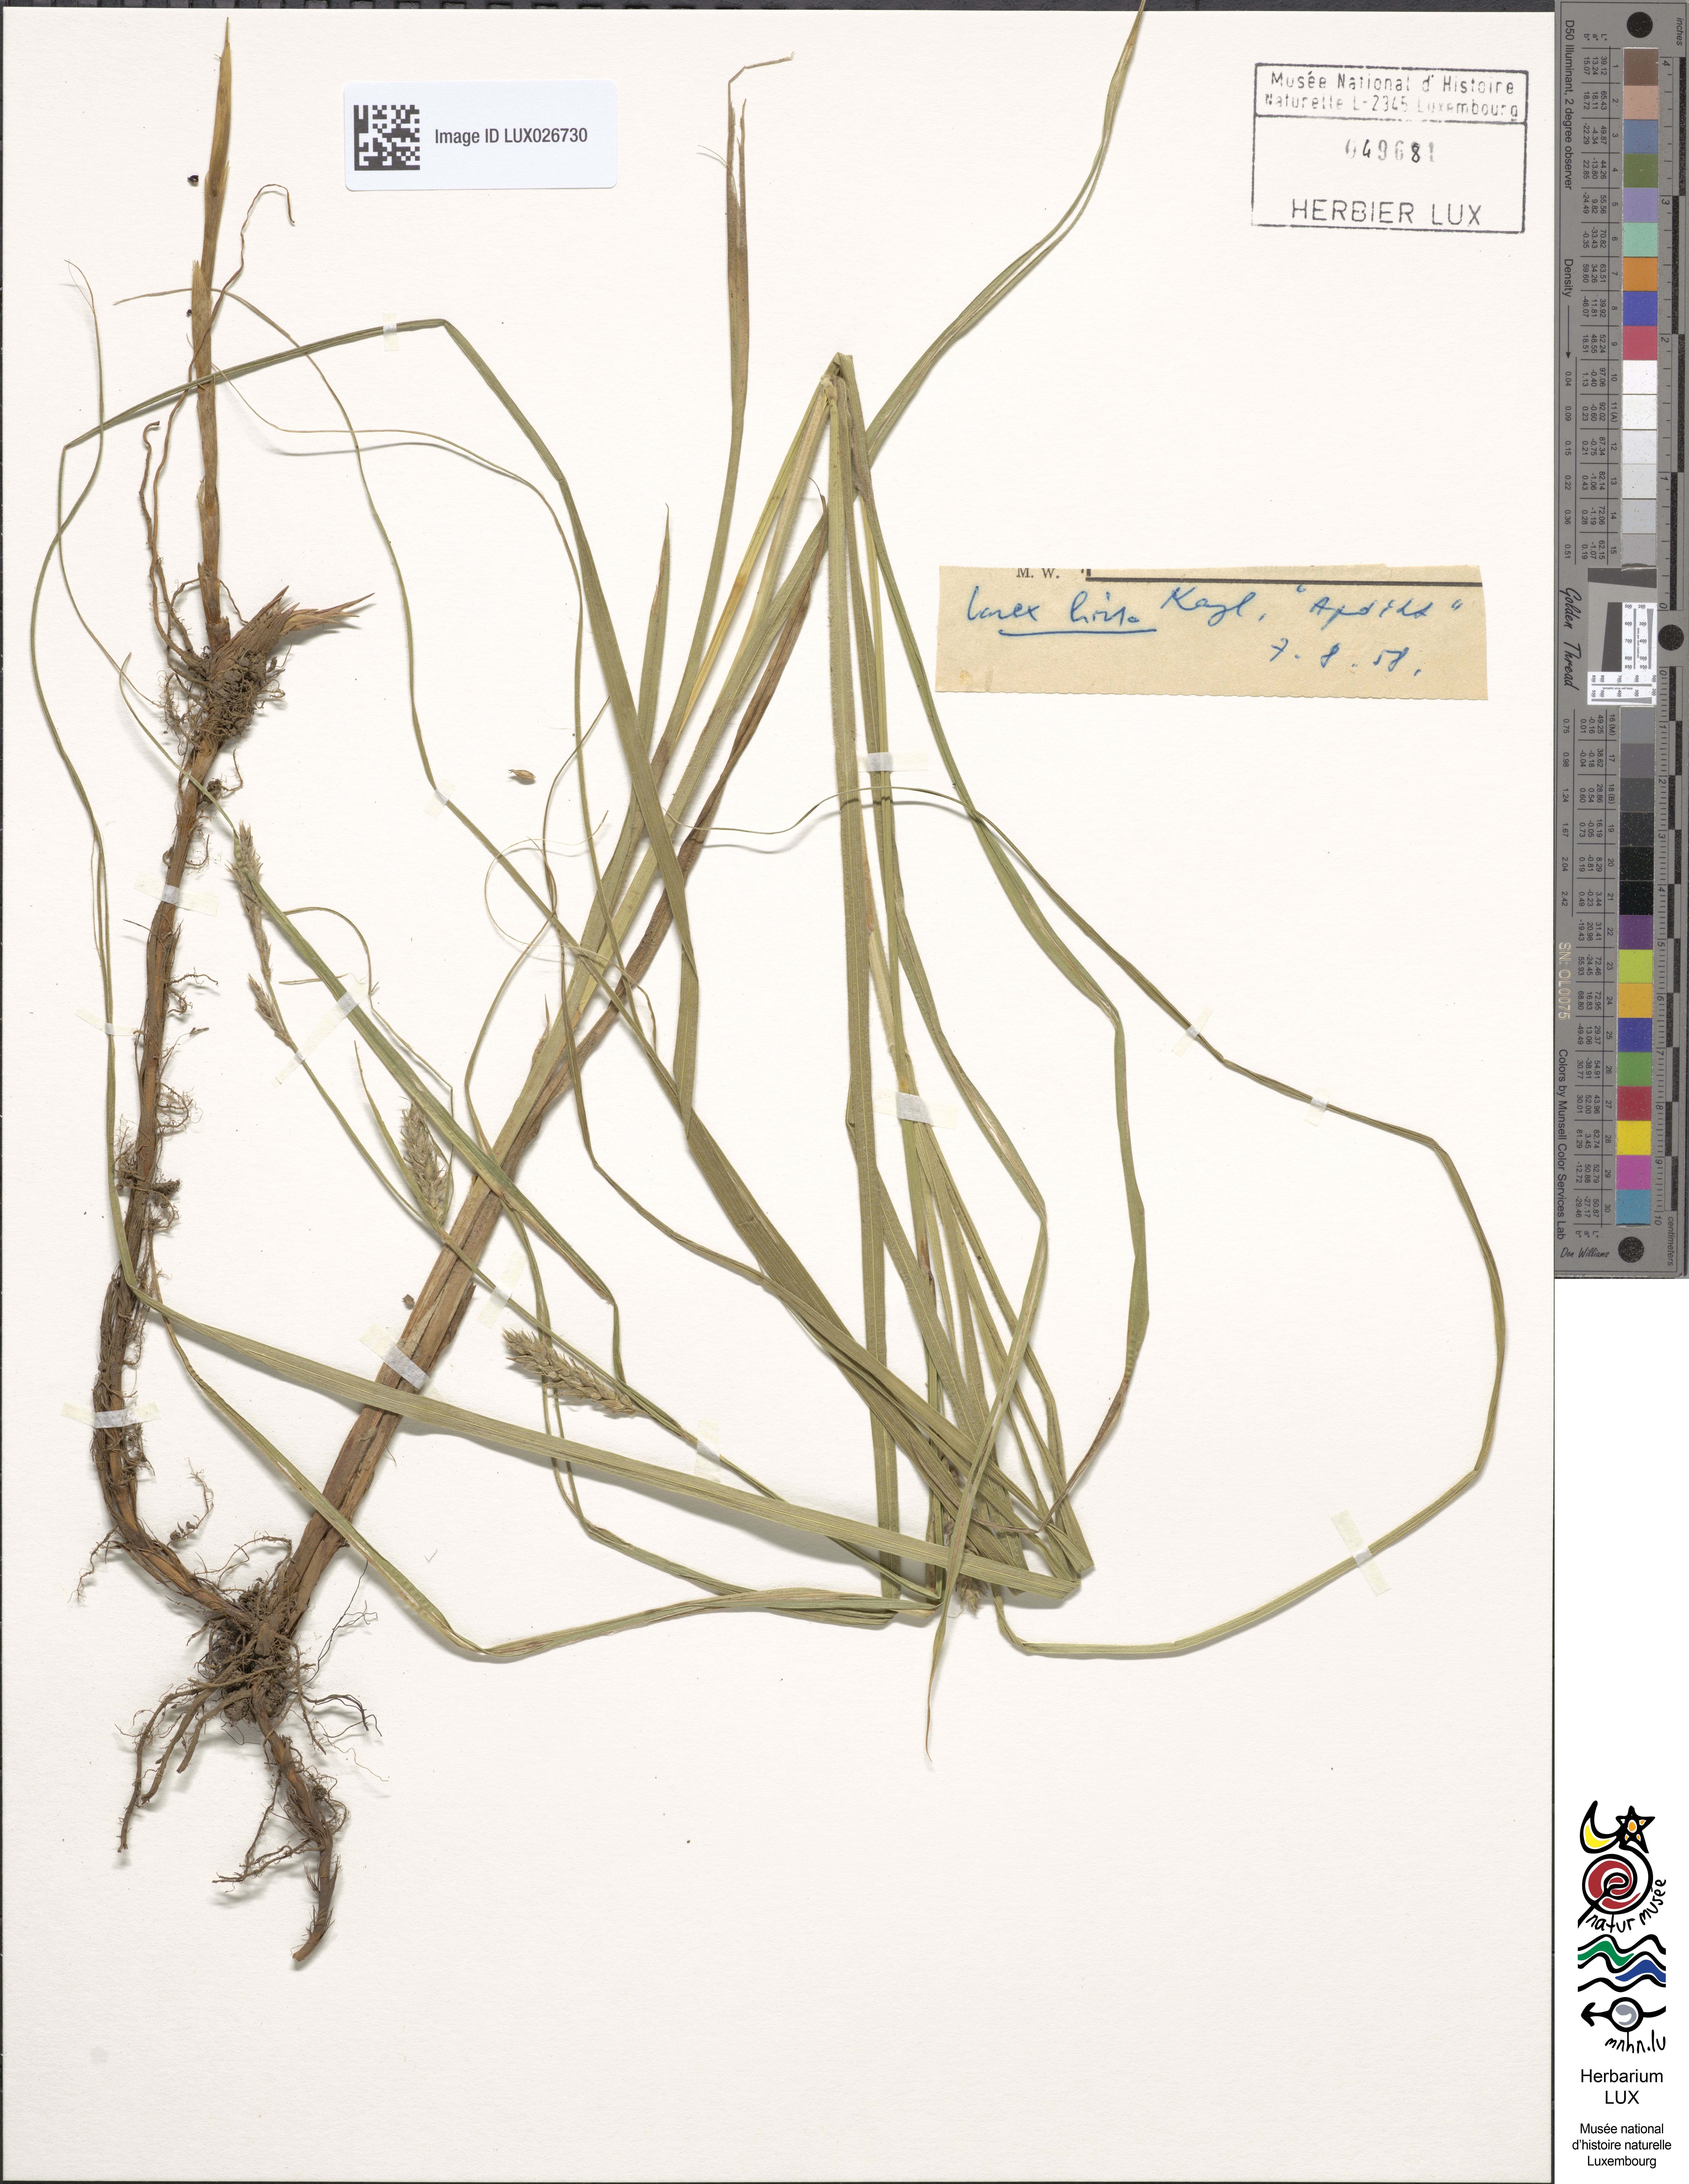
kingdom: Plantae
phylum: Tracheophyta
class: Liliopsida
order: Poales
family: Cyperaceae
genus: Carex
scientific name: Carex hirta
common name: Hairy sedge
